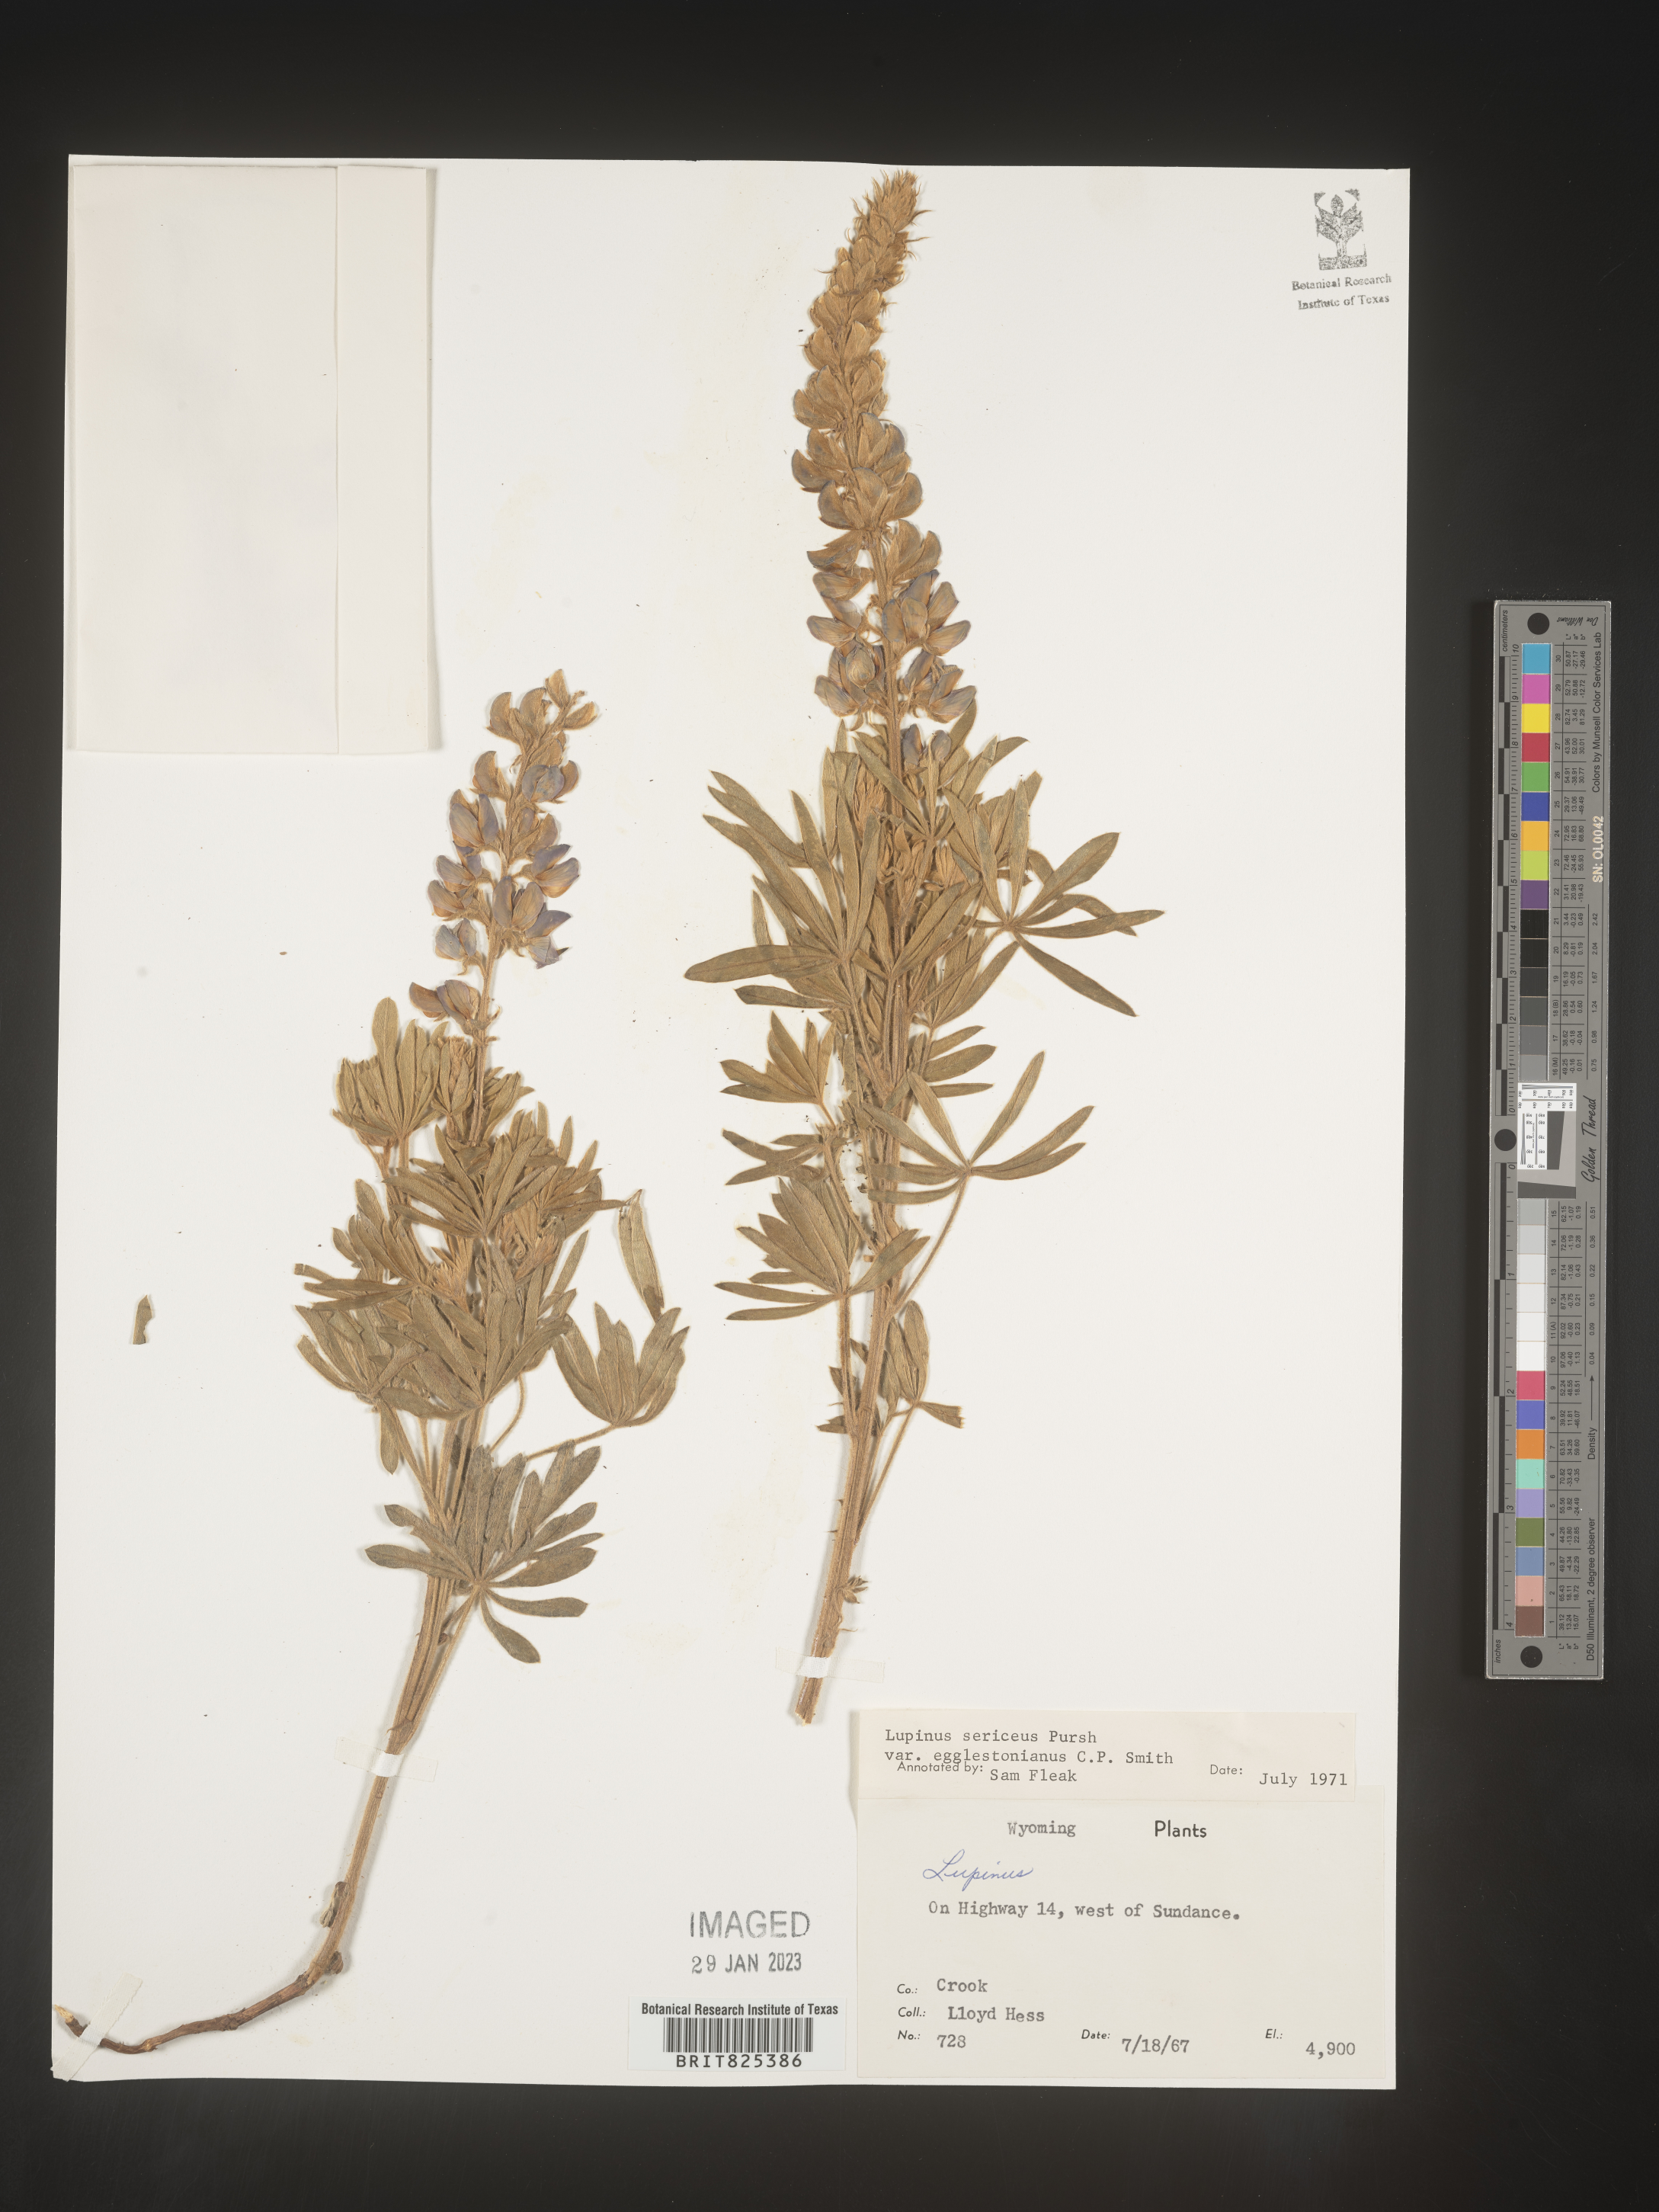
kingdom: Plantae
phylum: Tracheophyta
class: Magnoliopsida
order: Fabales
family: Fabaceae
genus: Lupinus
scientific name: Lupinus sericeus
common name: Silky lupine
